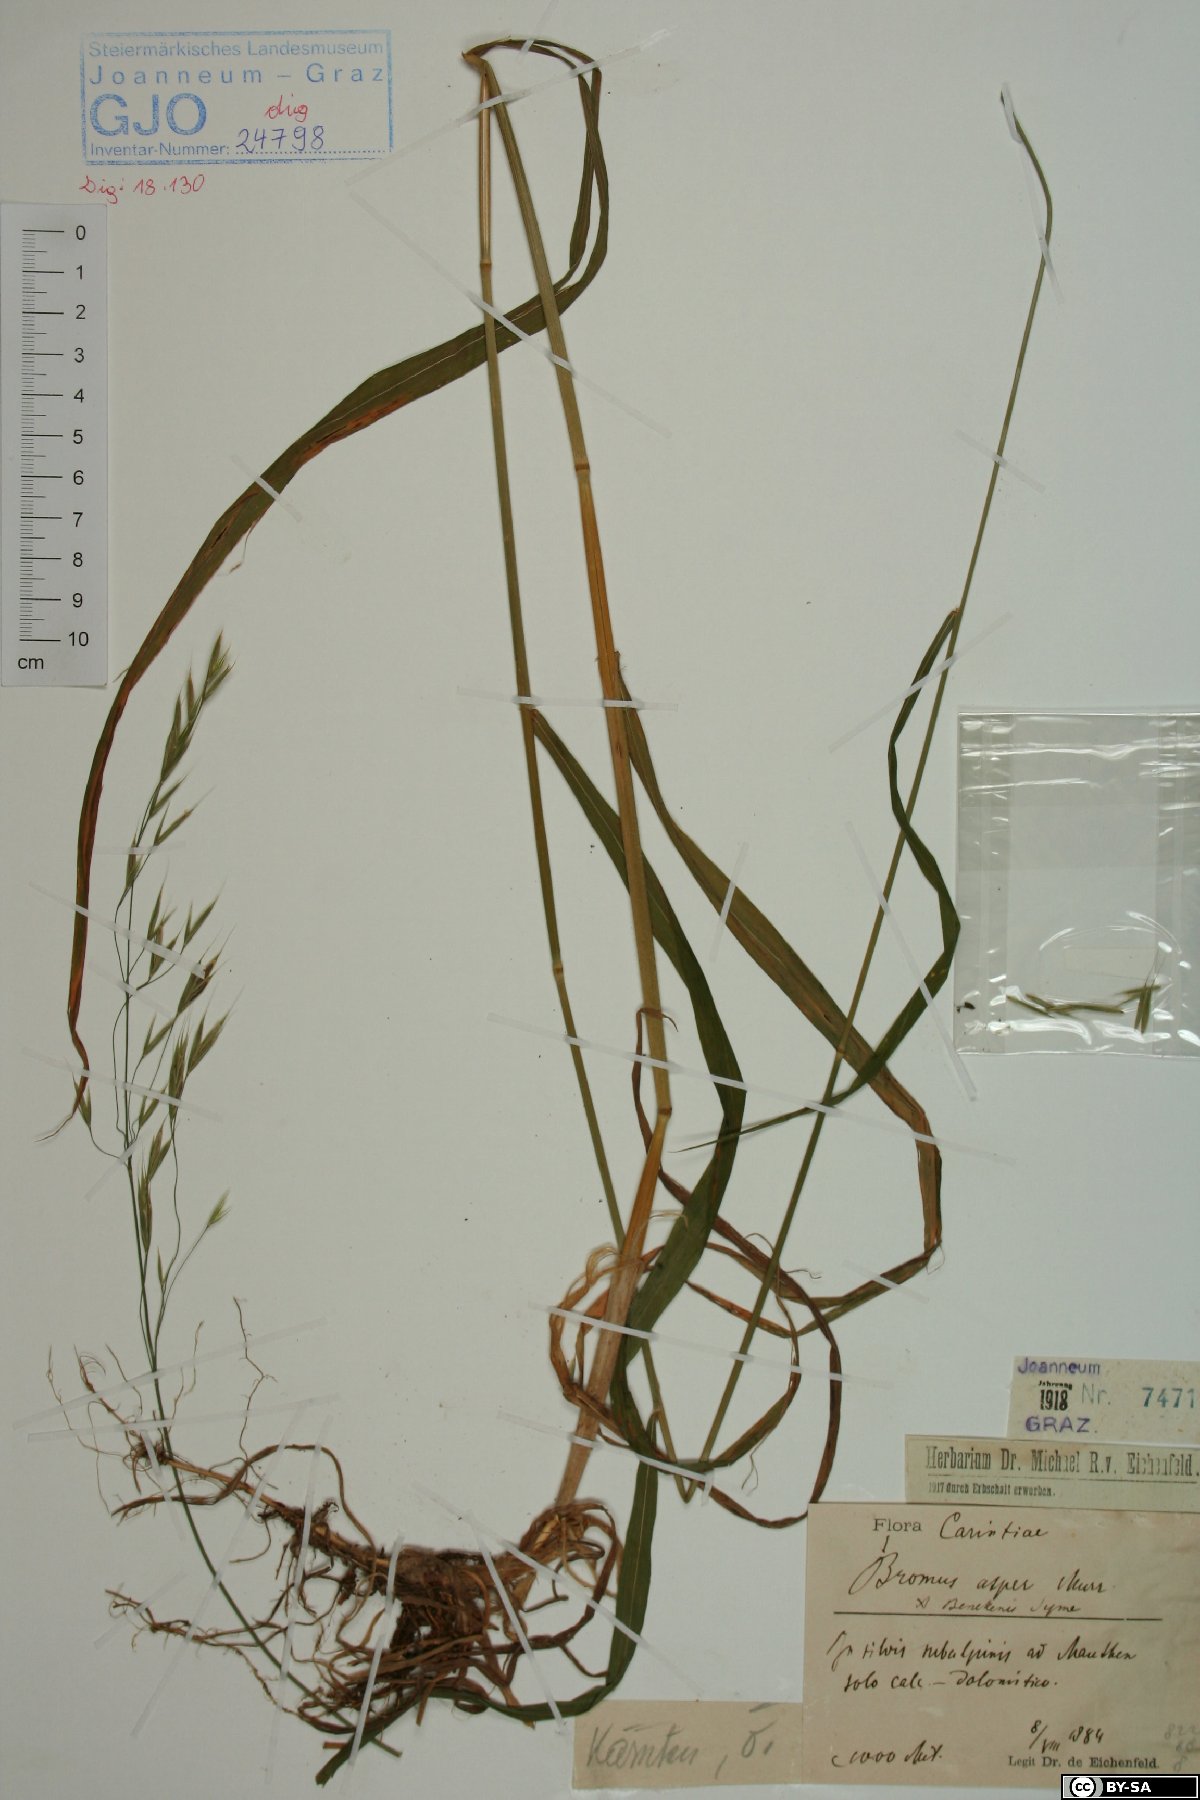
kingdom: Plantae
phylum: Tracheophyta
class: Liliopsida
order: Poales
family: Poaceae
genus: Bromus
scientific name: Bromus ramosus
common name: Hairy brome
